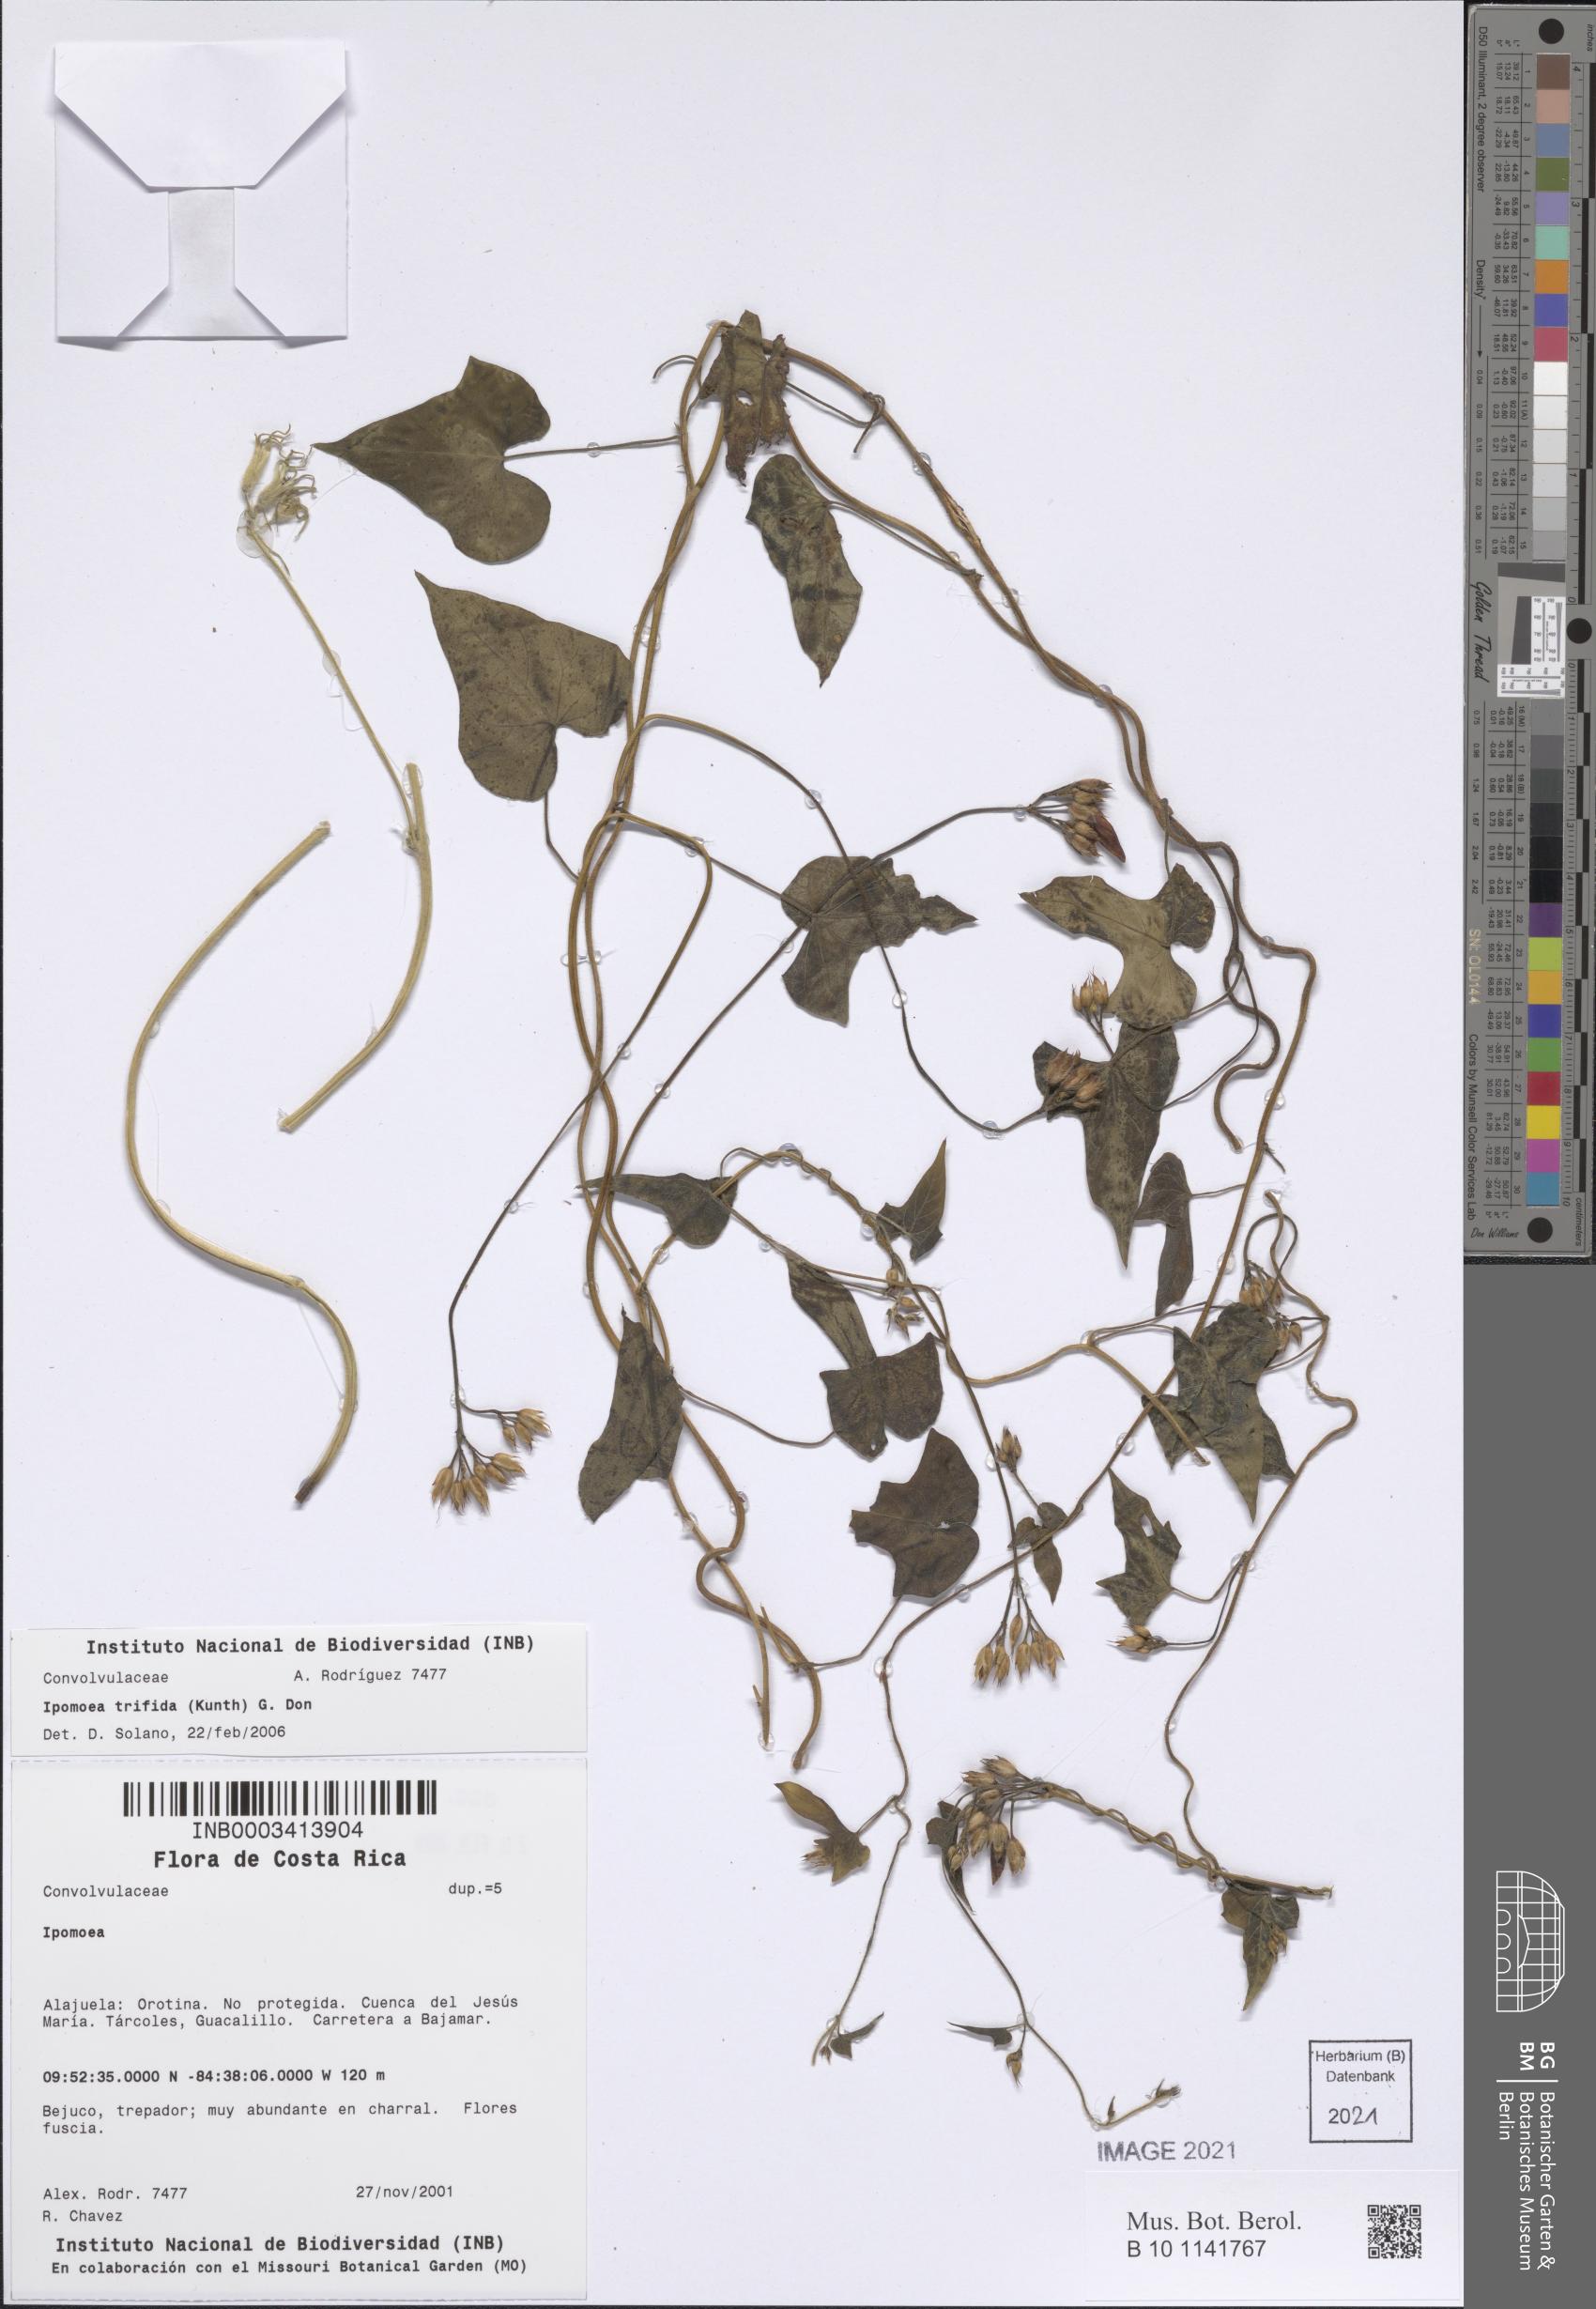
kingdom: Plantae
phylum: Tracheophyta
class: Magnoliopsida
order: Solanales
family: Convolvulaceae
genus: Ipomoea
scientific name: Ipomoea trifida
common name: Cotton morningglory
